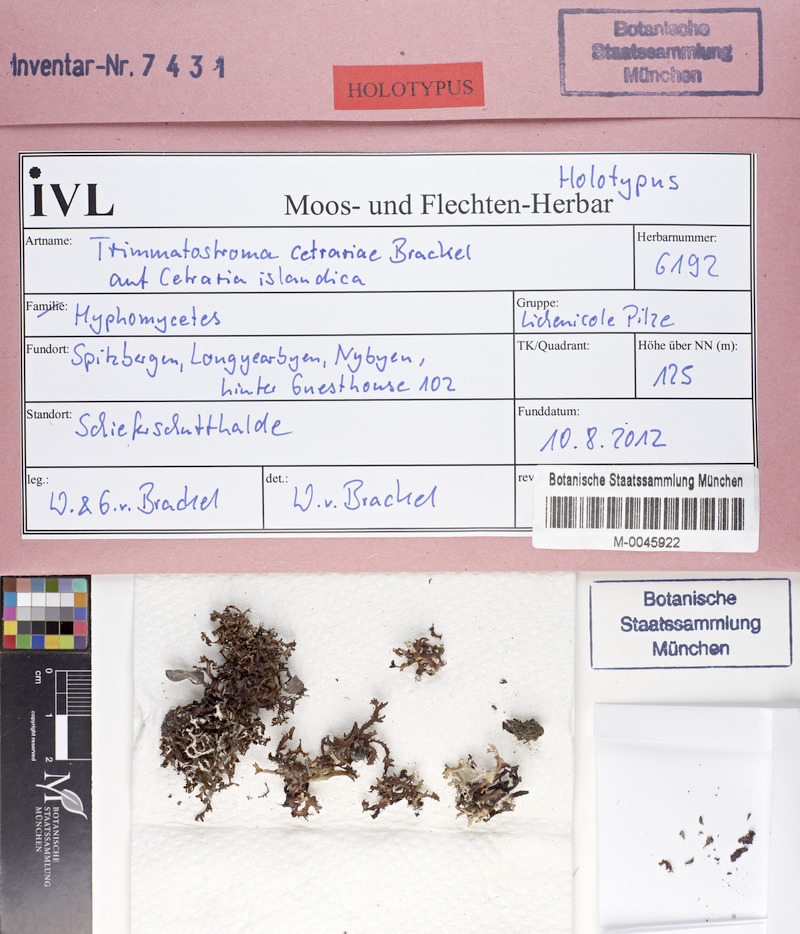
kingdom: Fungi
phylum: Ascomycota
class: Leotiomycetes
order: Helotiales
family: Mollisiaceae
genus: Trimmatostroma
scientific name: Trimmatostroma cetrariae
